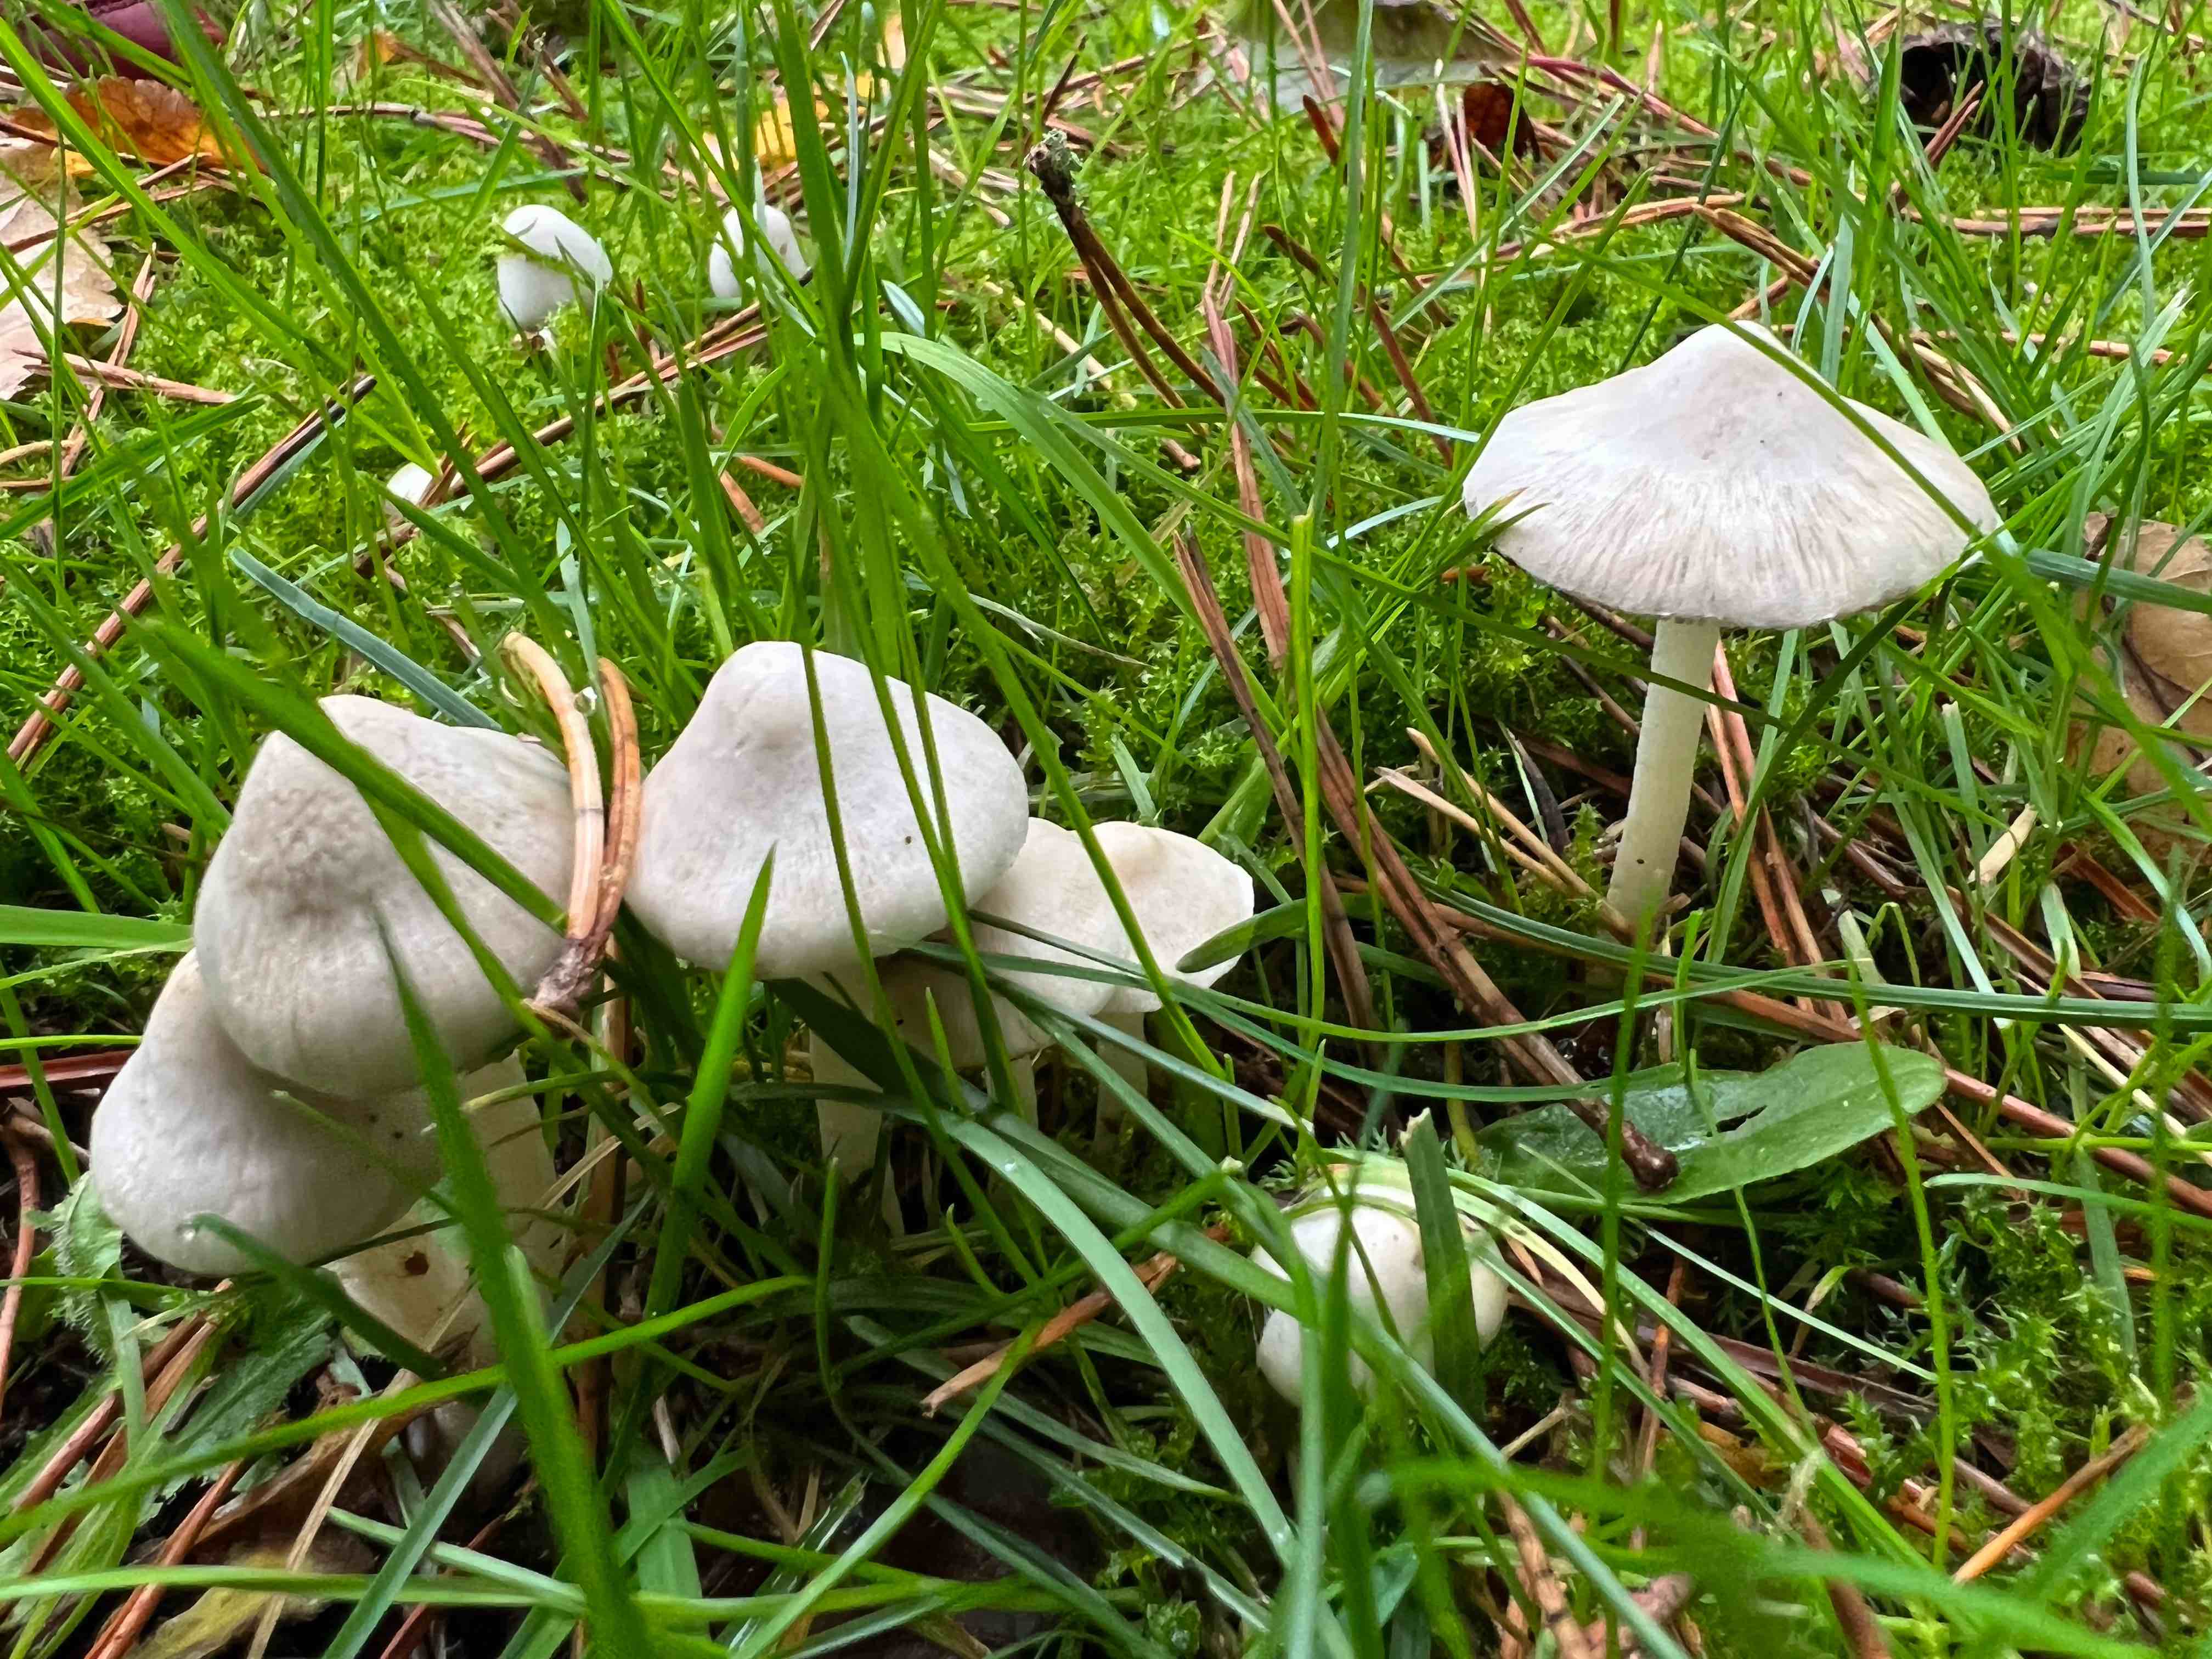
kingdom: Fungi
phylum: Basidiomycota
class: Agaricomycetes
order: Agaricales
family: Inocybaceae
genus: Inocybe
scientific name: Inocybe
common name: trævlhat
